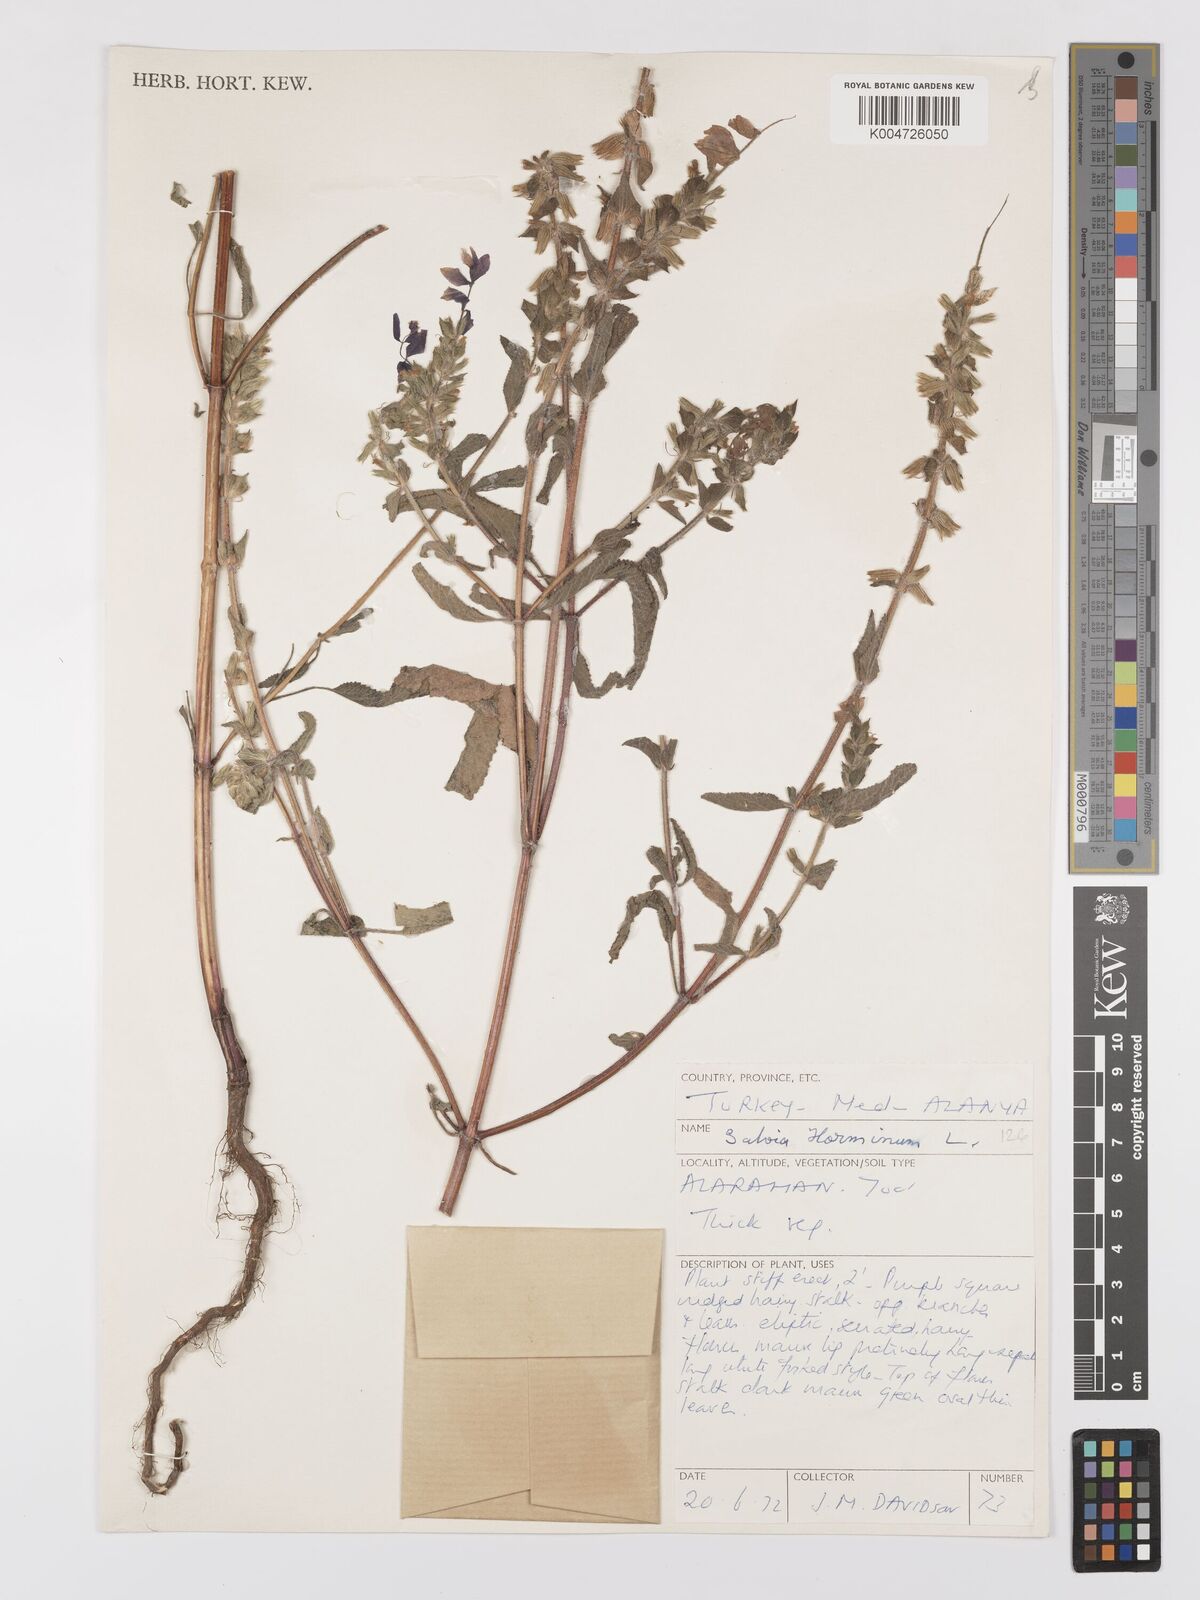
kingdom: Plantae
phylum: Tracheophyta
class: Magnoliopsida
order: Lamiales
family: Lamiaceae
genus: Salvia
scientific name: Salvia viridis
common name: Annual clary
